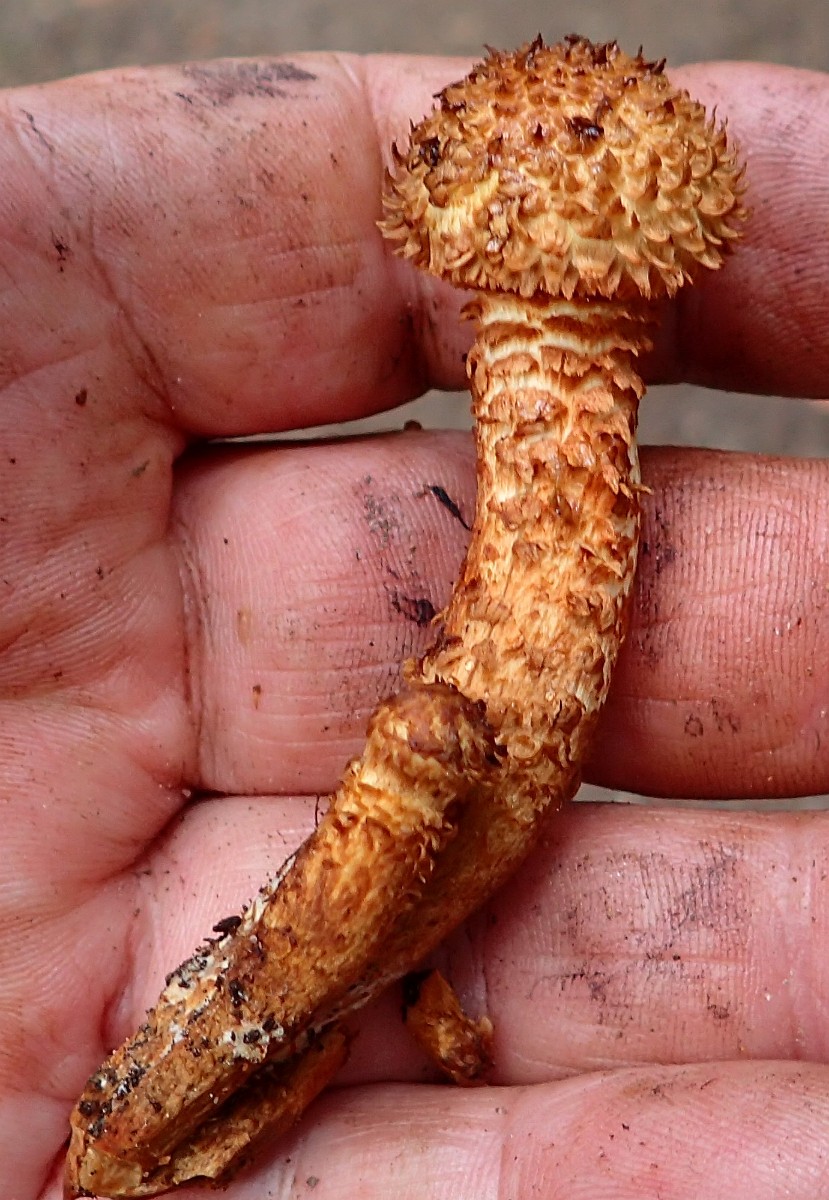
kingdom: Fungi
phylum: Basidiomycota
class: Agaricomycetes
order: Agaricales
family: Strophariaceae
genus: Pholiota
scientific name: Pholiota squarrosa
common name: krumskællet skælhat
